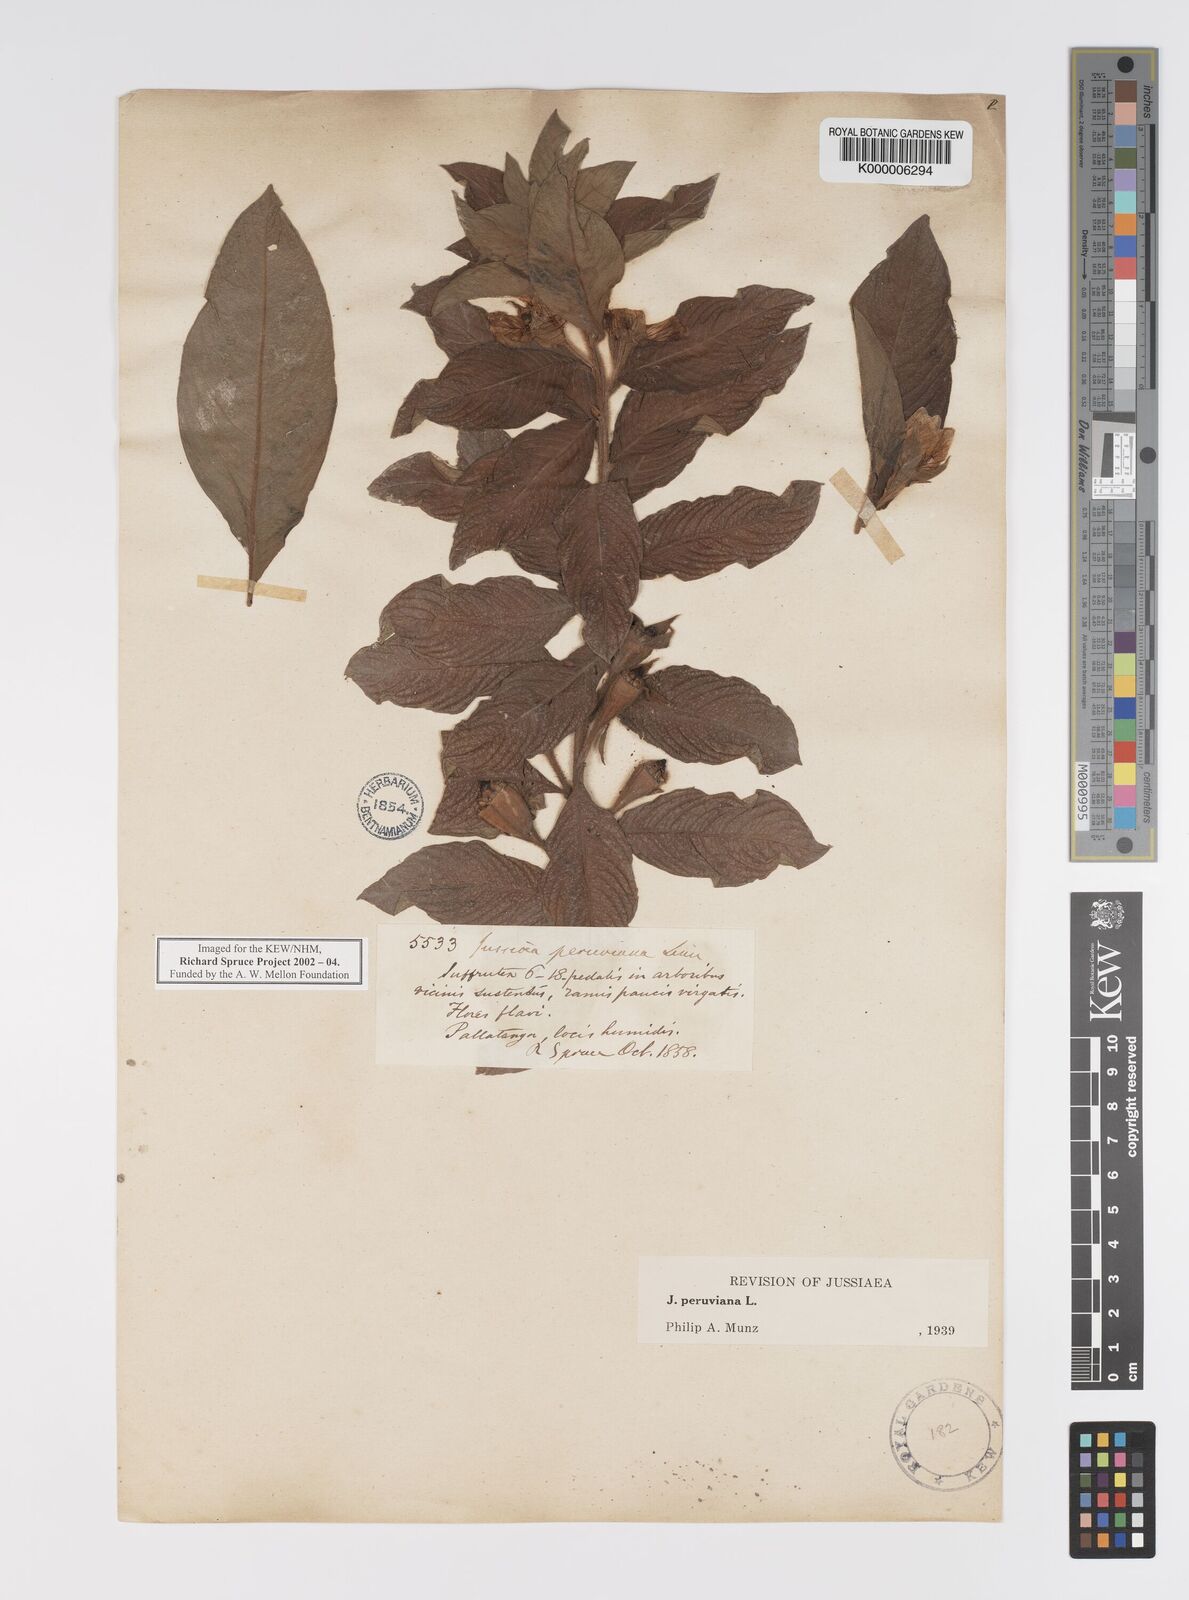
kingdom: Plantae
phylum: Tracheophyta
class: Magnoliopsida
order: Myrtales
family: Onagraceae
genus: Ludwigia
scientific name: Ludwigia peruviana
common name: Peruvian primrose-willow
